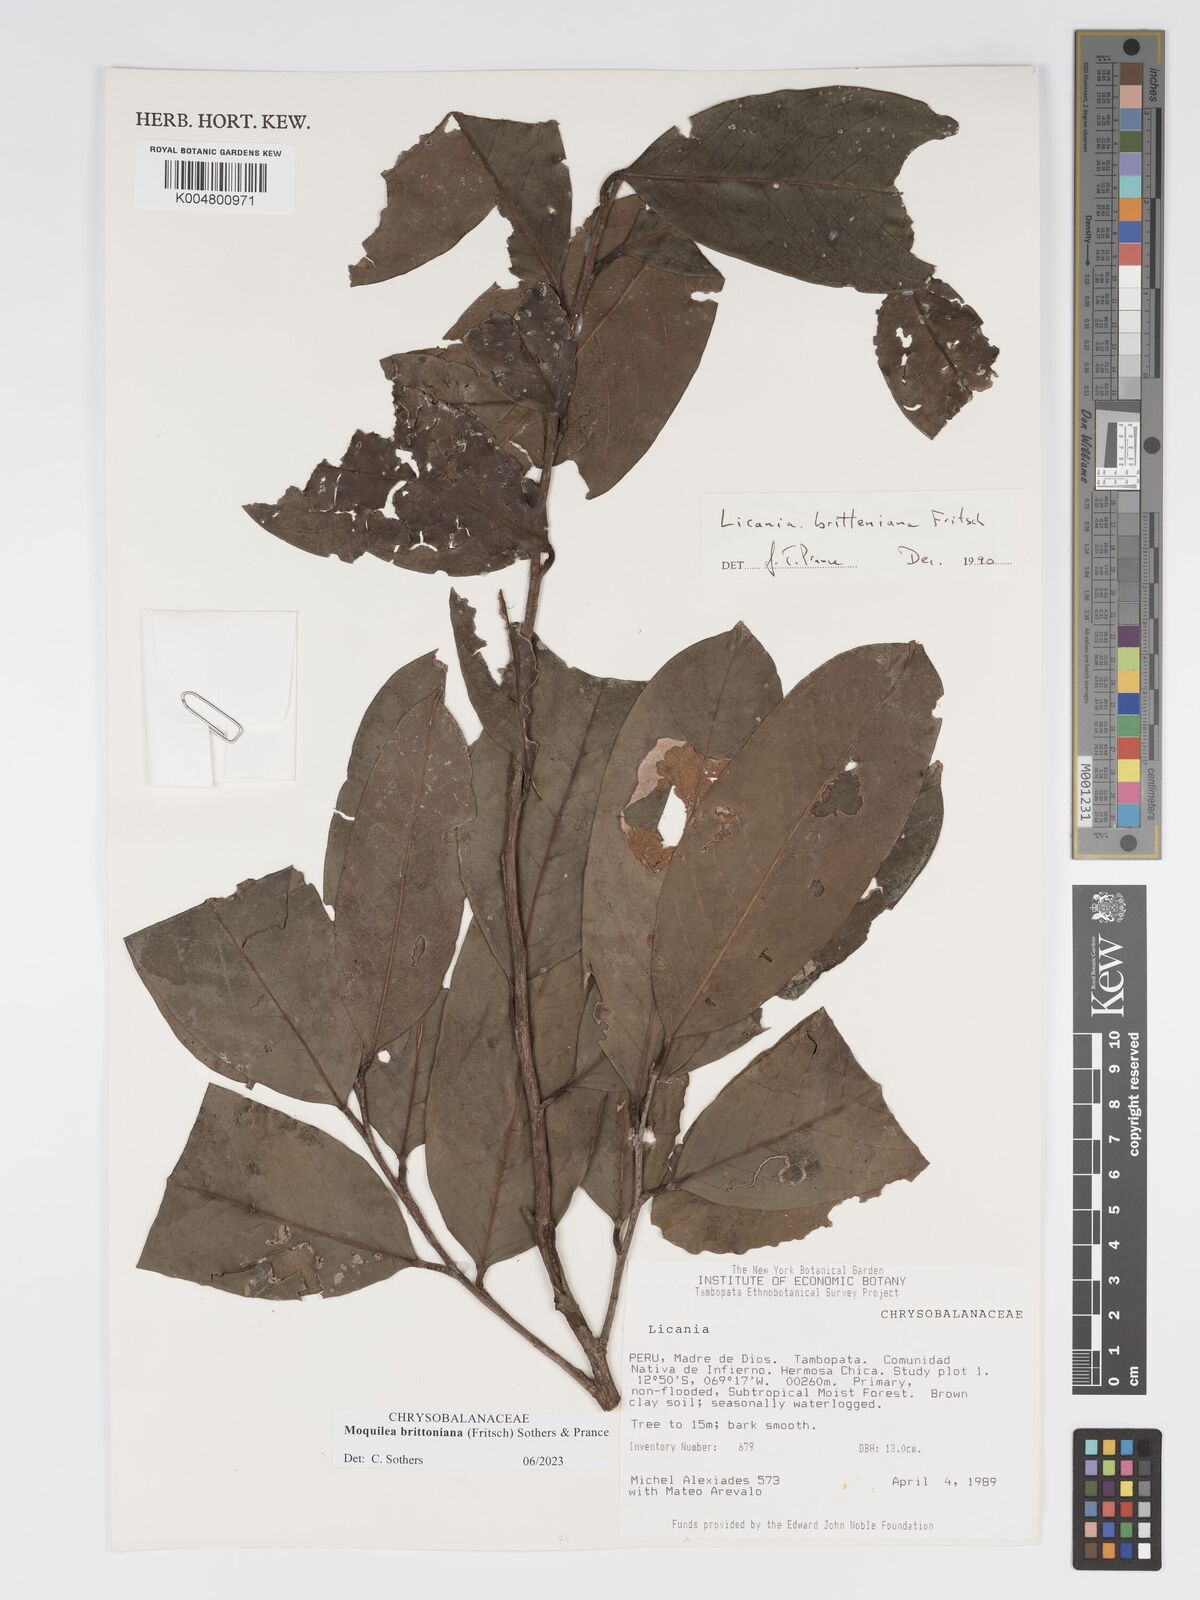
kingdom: Plantae
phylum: Tracheophyta
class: Magnoliopsida
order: Malpighiales
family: Chrysobalanaceae
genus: Moquilea
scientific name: Moquilea brittoniana
